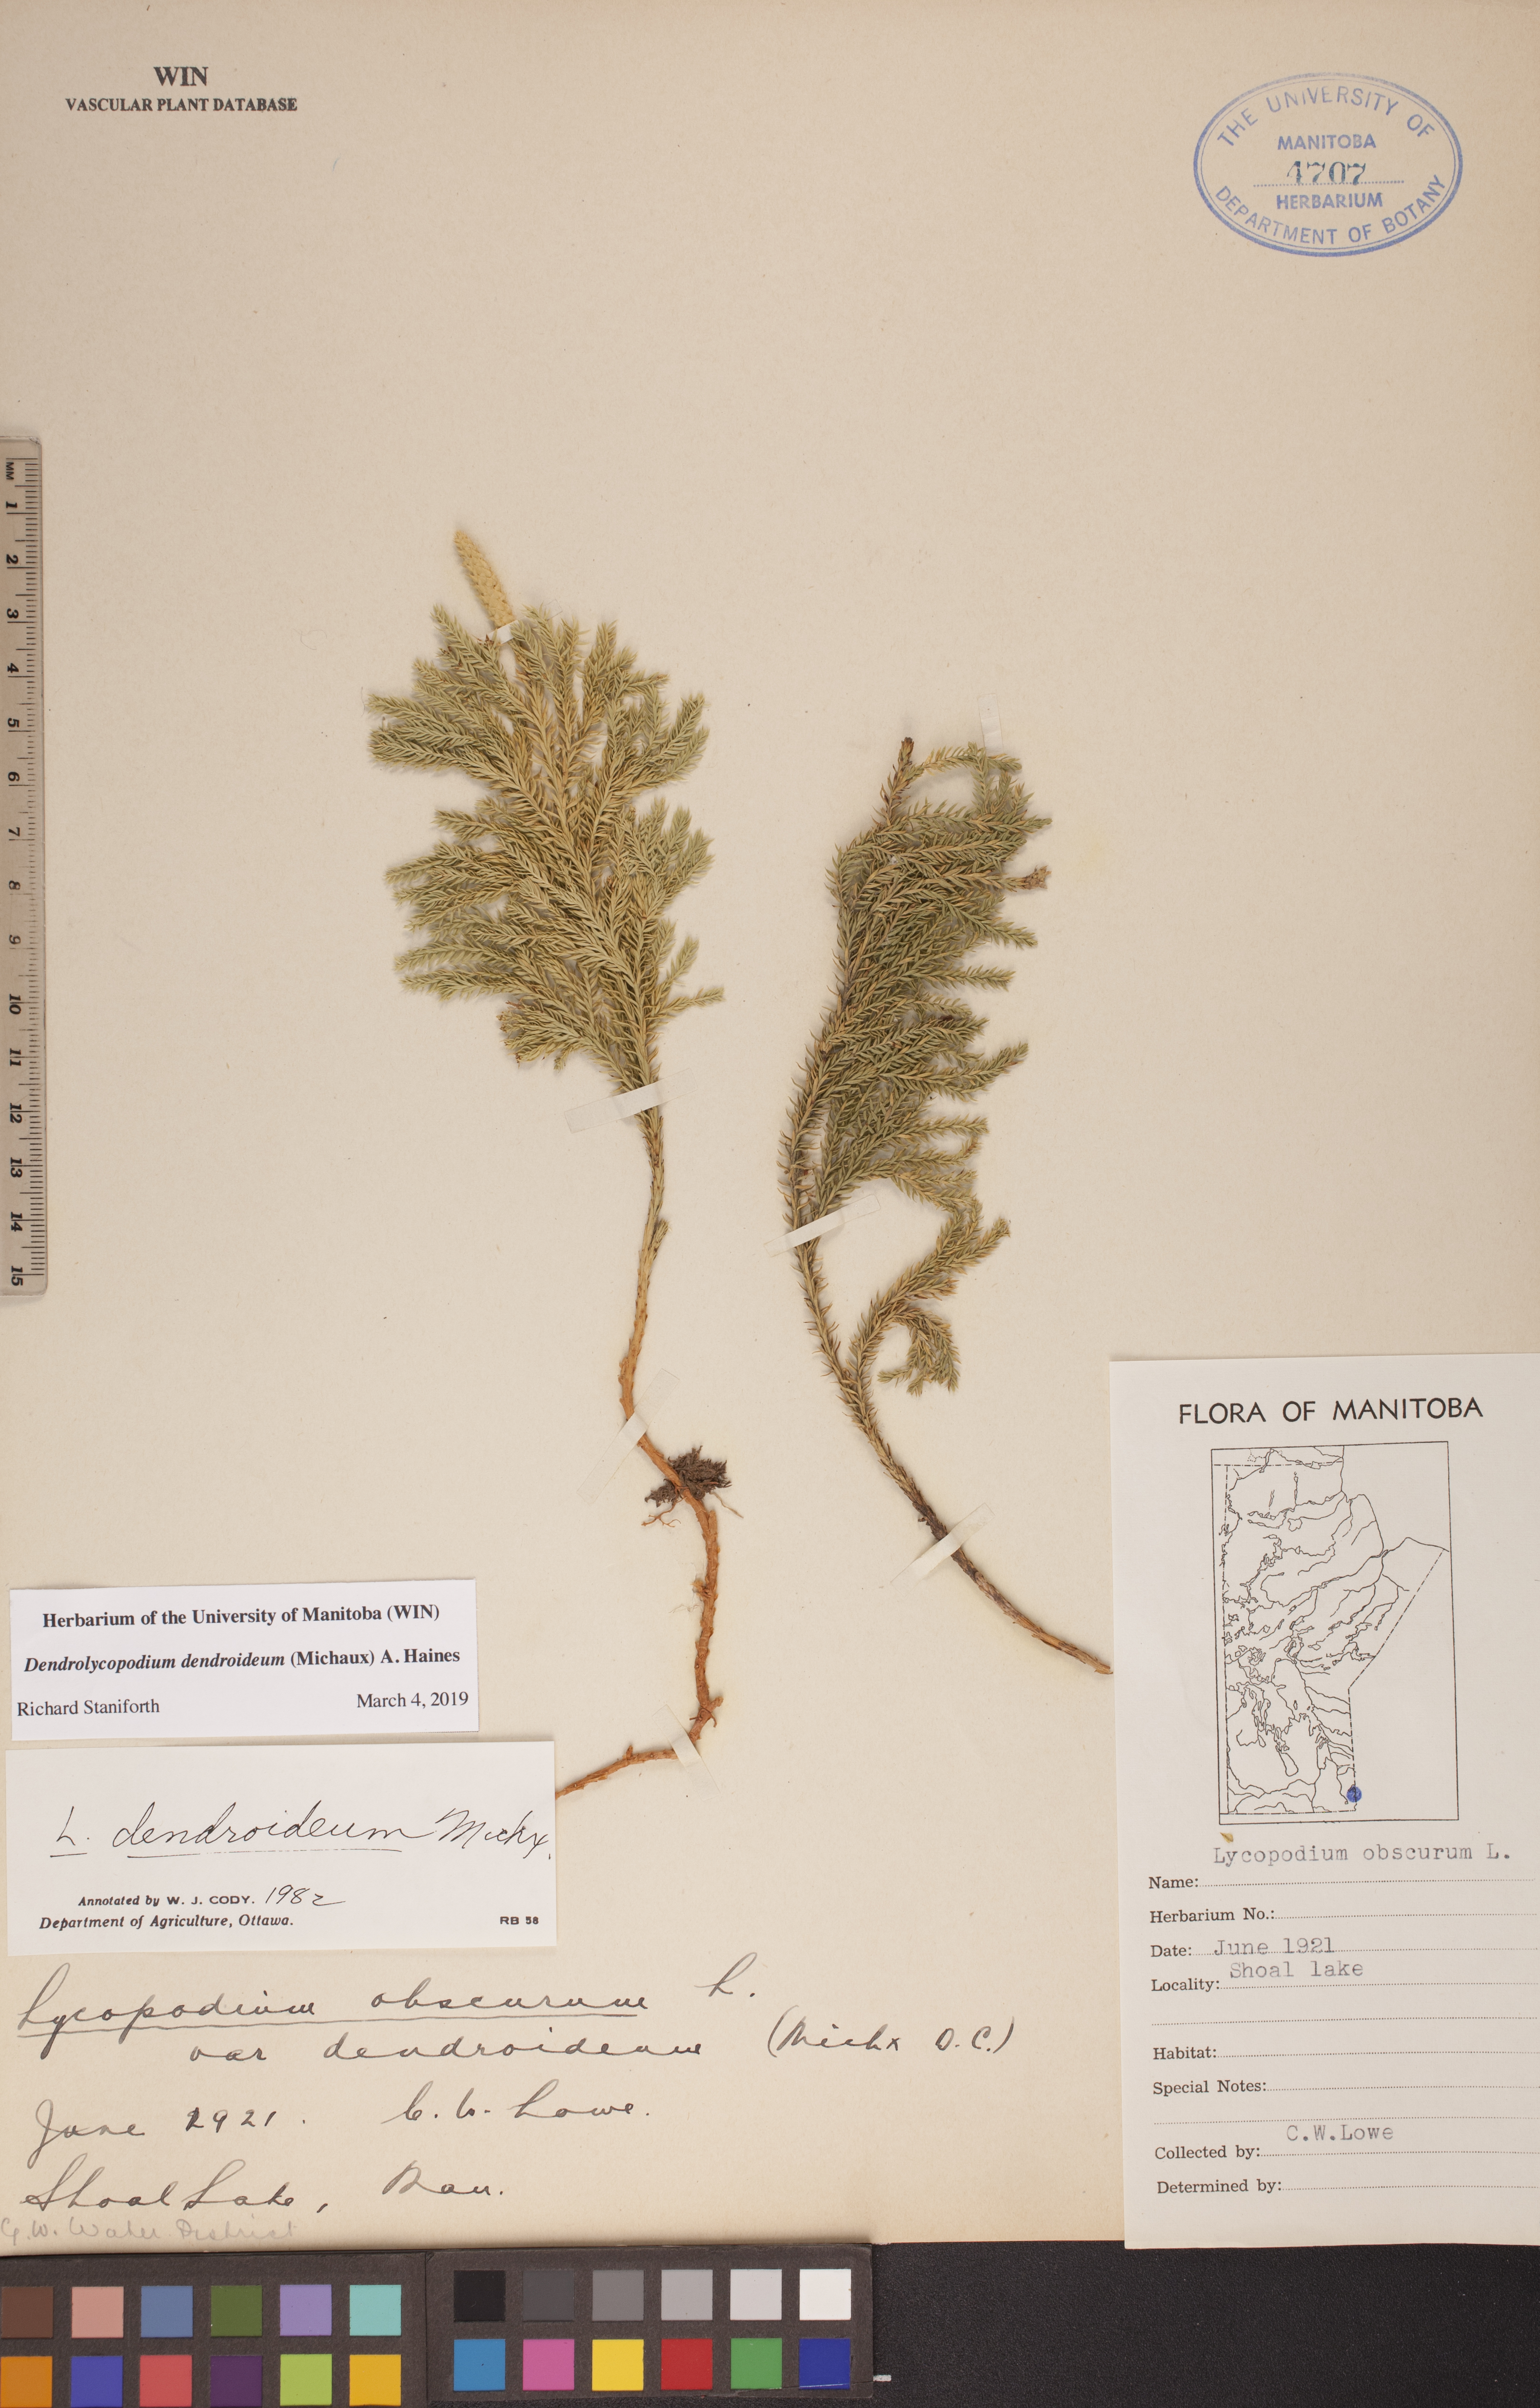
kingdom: Plantae
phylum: Tracheophyta
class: Lycopodiopsida
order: Lycopodiales
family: Lycopodiaceae
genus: Dendrolycopodium
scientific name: Dendrolycopodium dendroideum
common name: Northern tree-clubmoss
